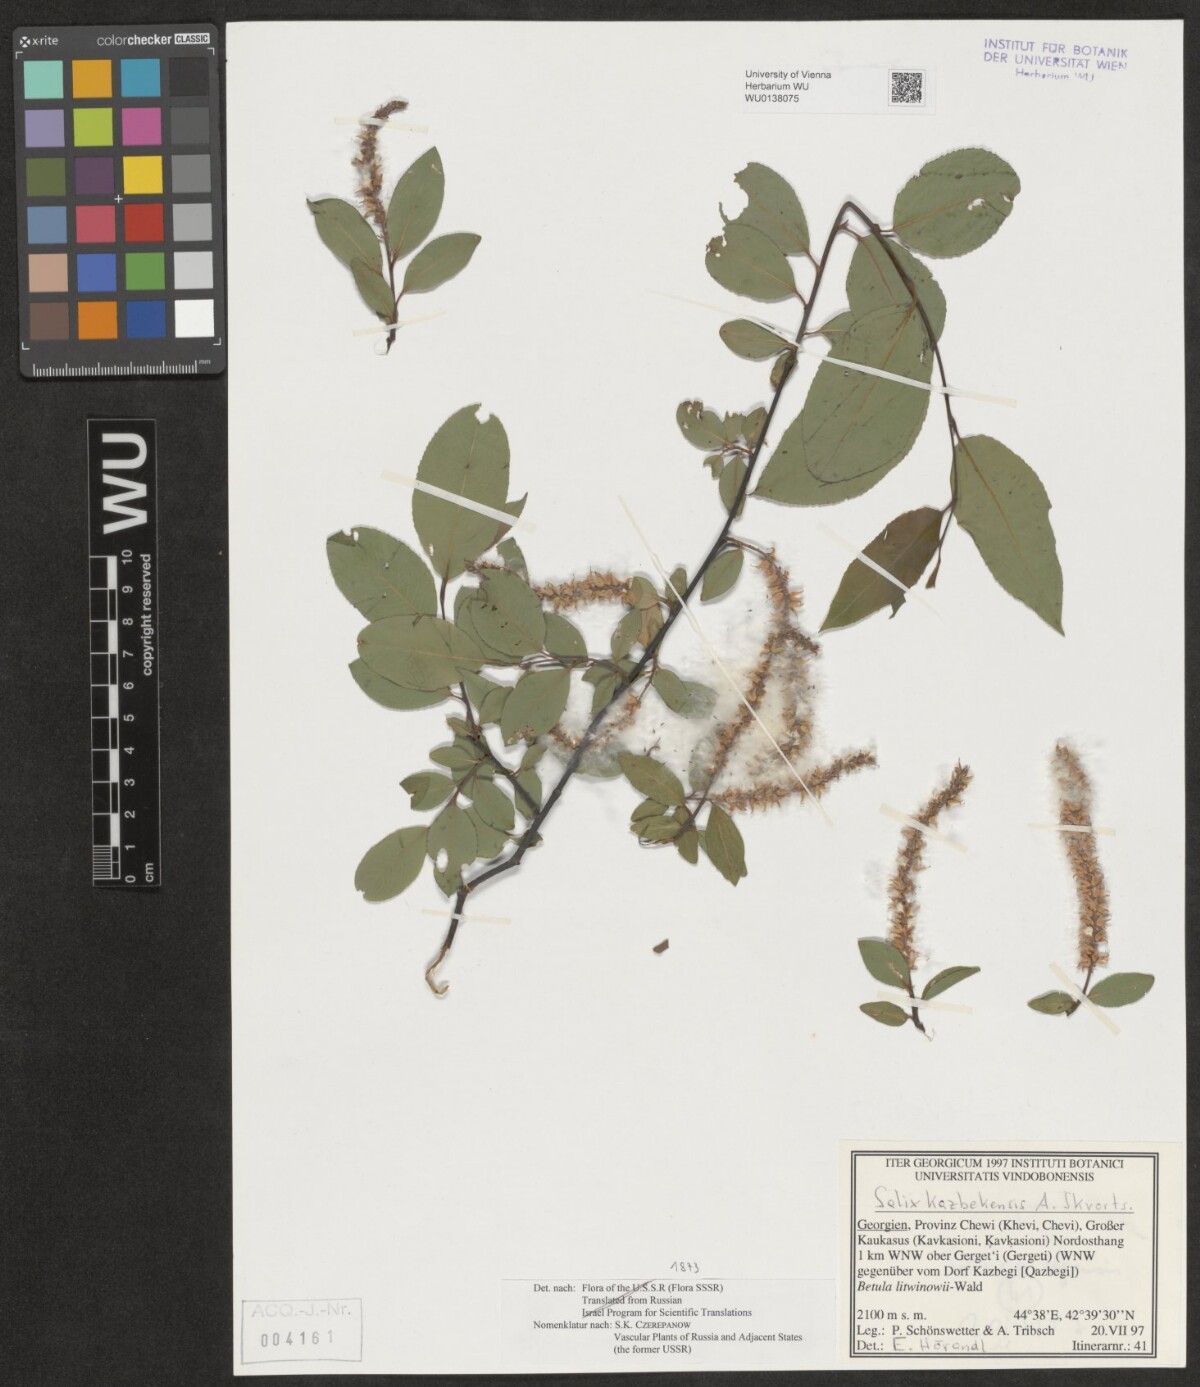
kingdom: Plantae
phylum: Tracheophyta
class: Magnoliopsida
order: Malpighiales
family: Salicaceae
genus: Salix
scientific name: Salix kazbekensis
